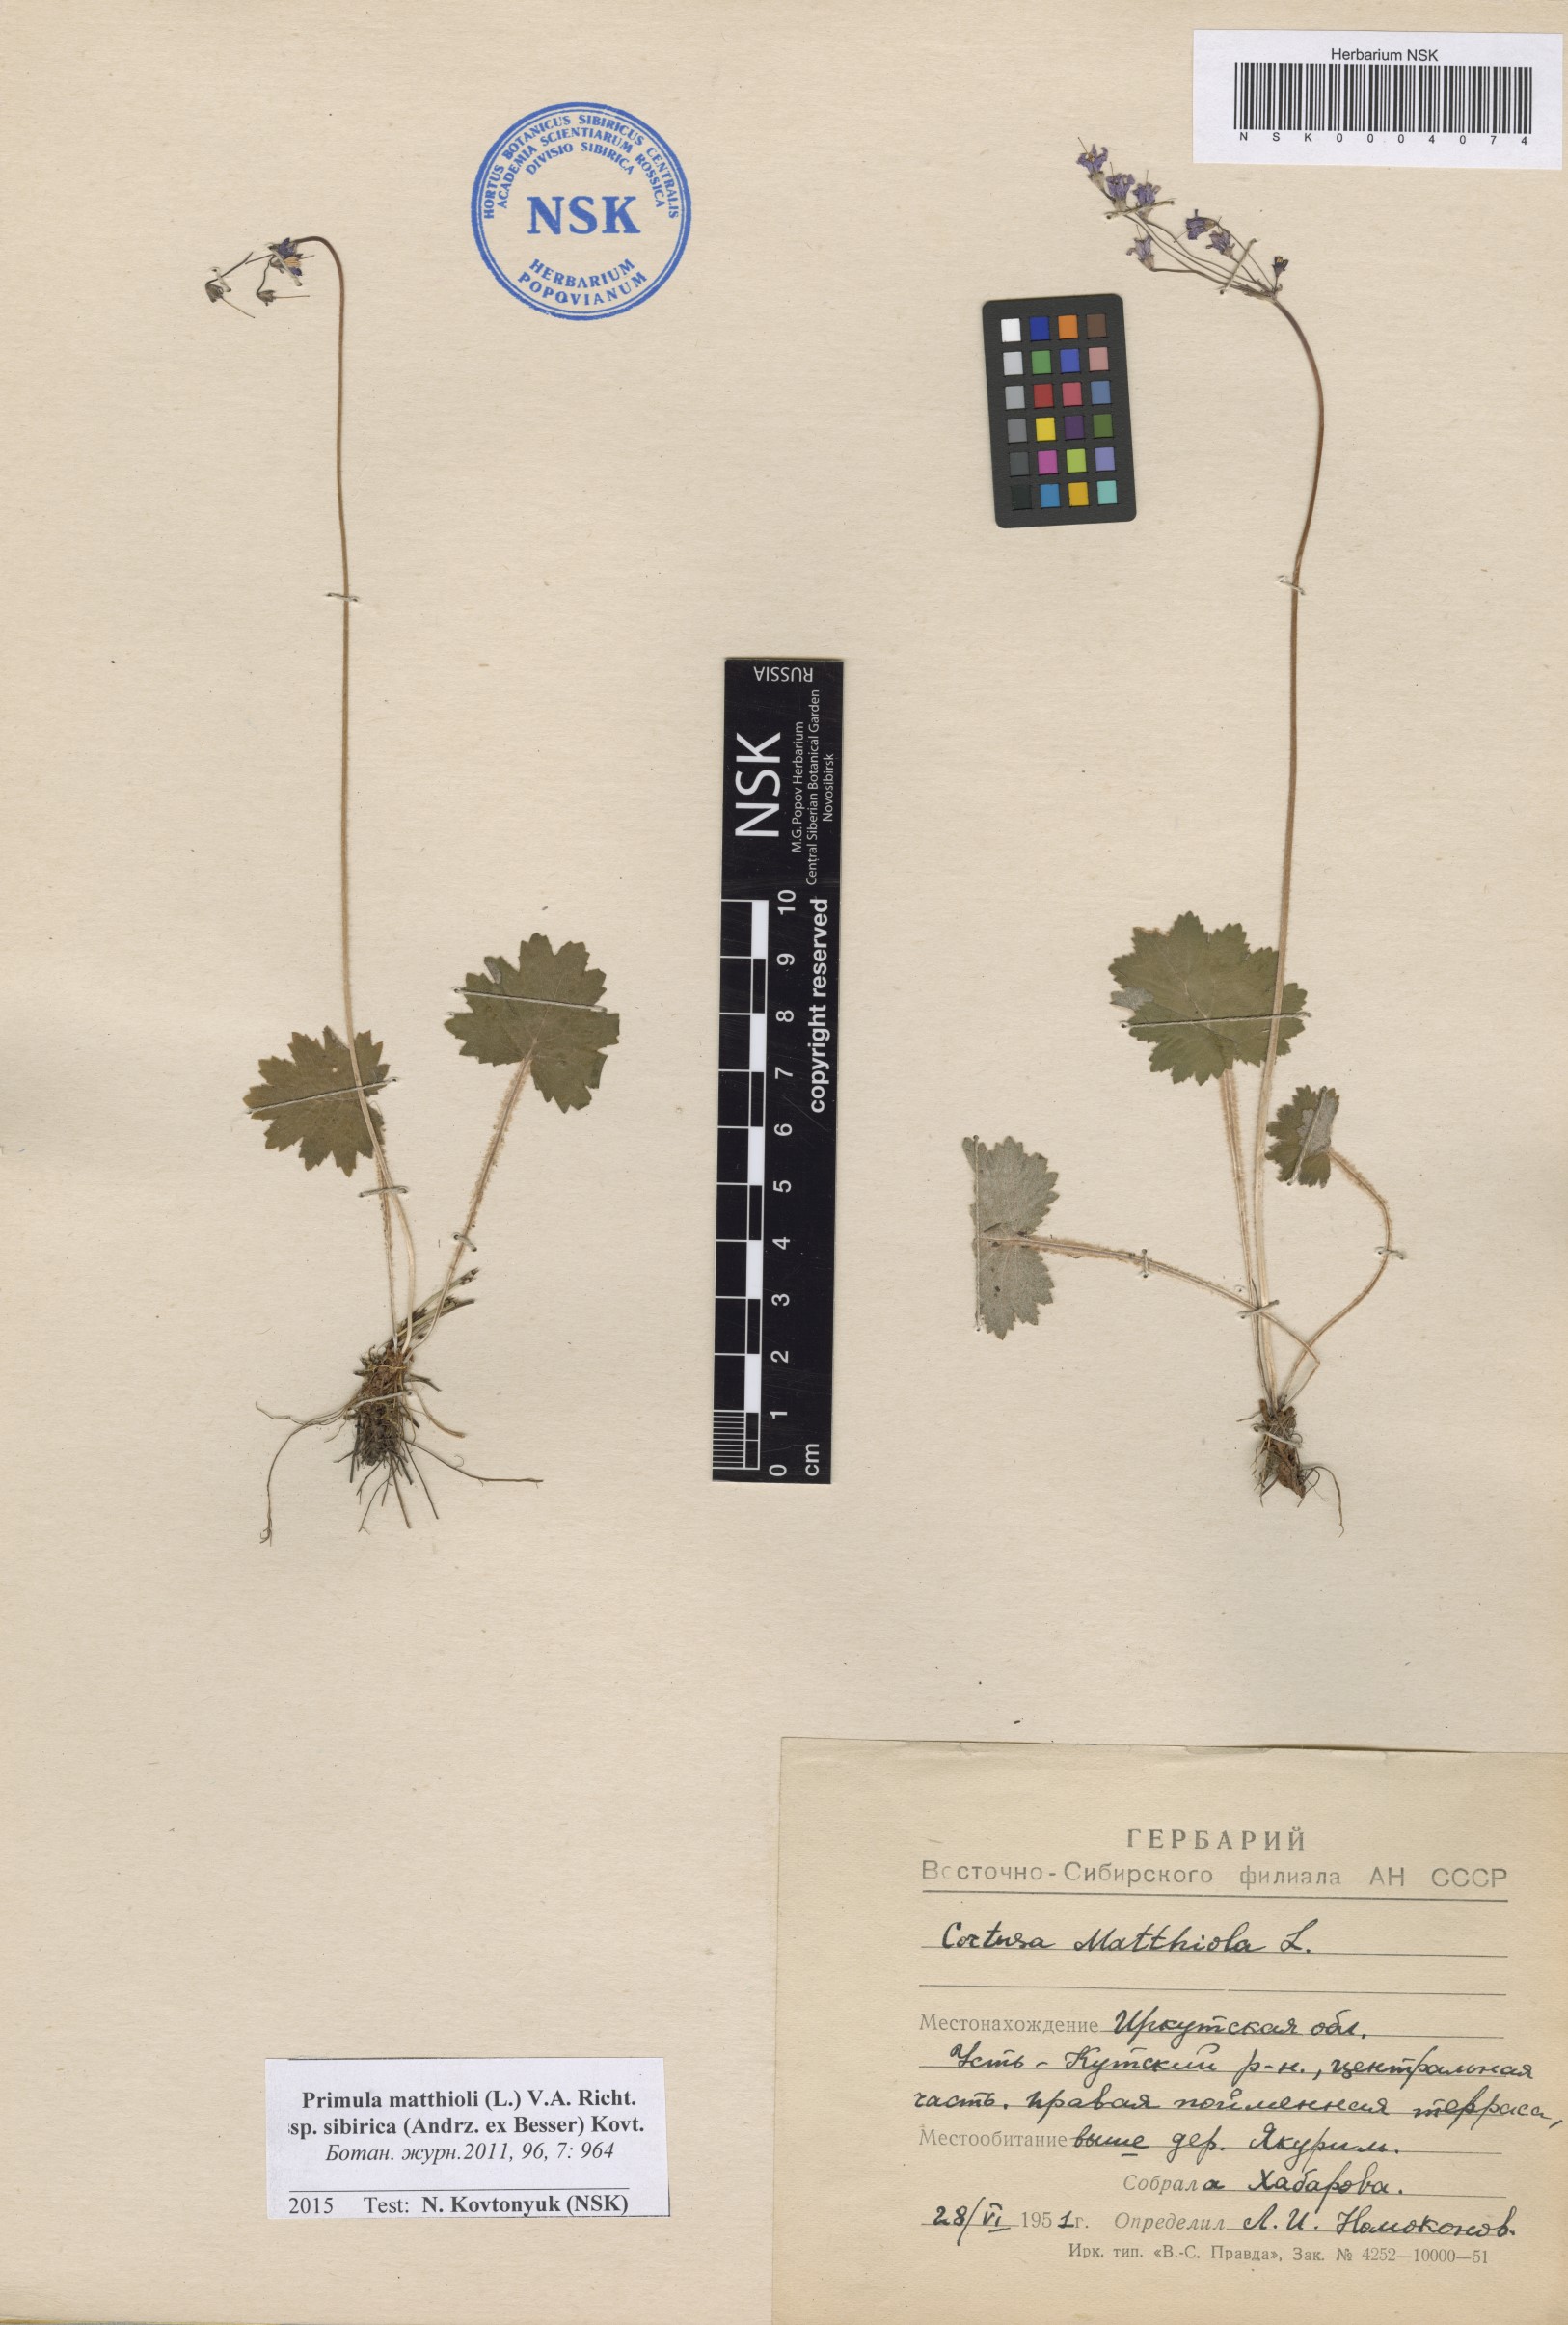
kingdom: Plantae
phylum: Tracheophyta
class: Magnoliopsida
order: Ericales
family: Primulaceae
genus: Primula
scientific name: Primula matthioli
